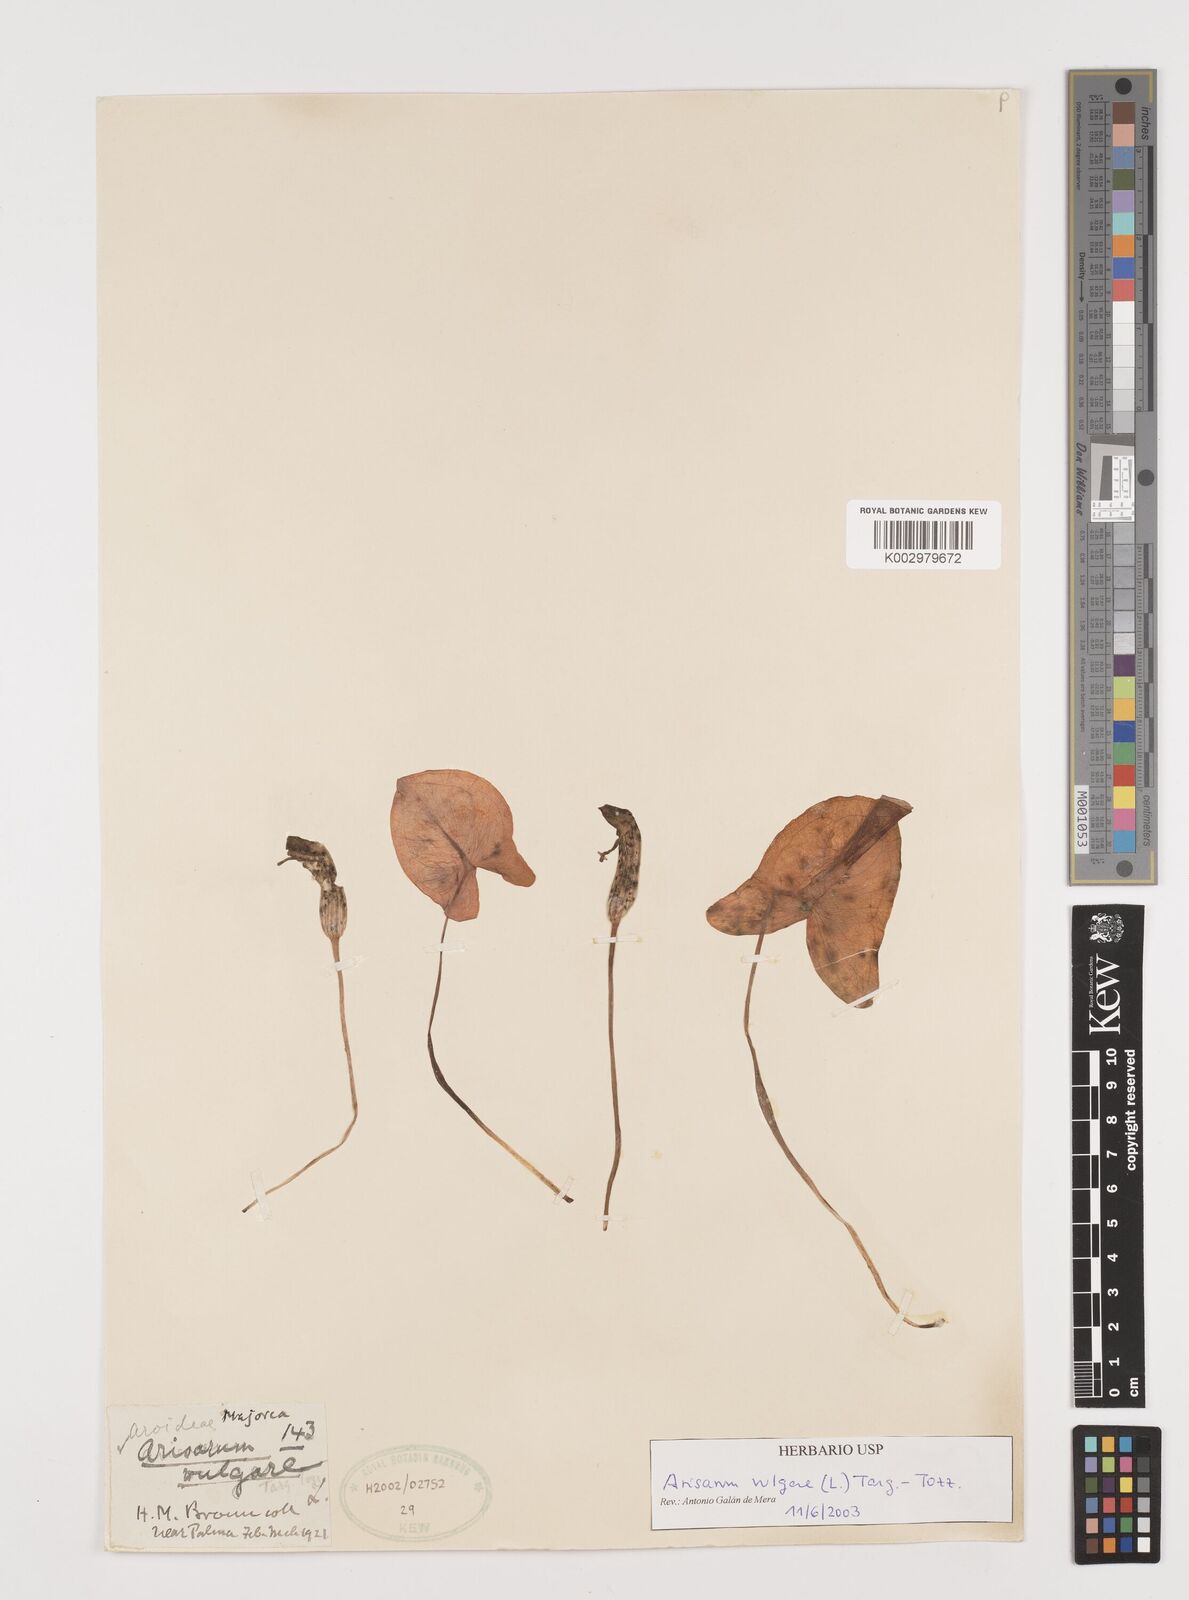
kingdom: Plantae
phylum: Tracheophyta
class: Liliopsida
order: Alismatales
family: Araceae
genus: Arisarum
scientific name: Arisarum vulgare
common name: Common arisarum
